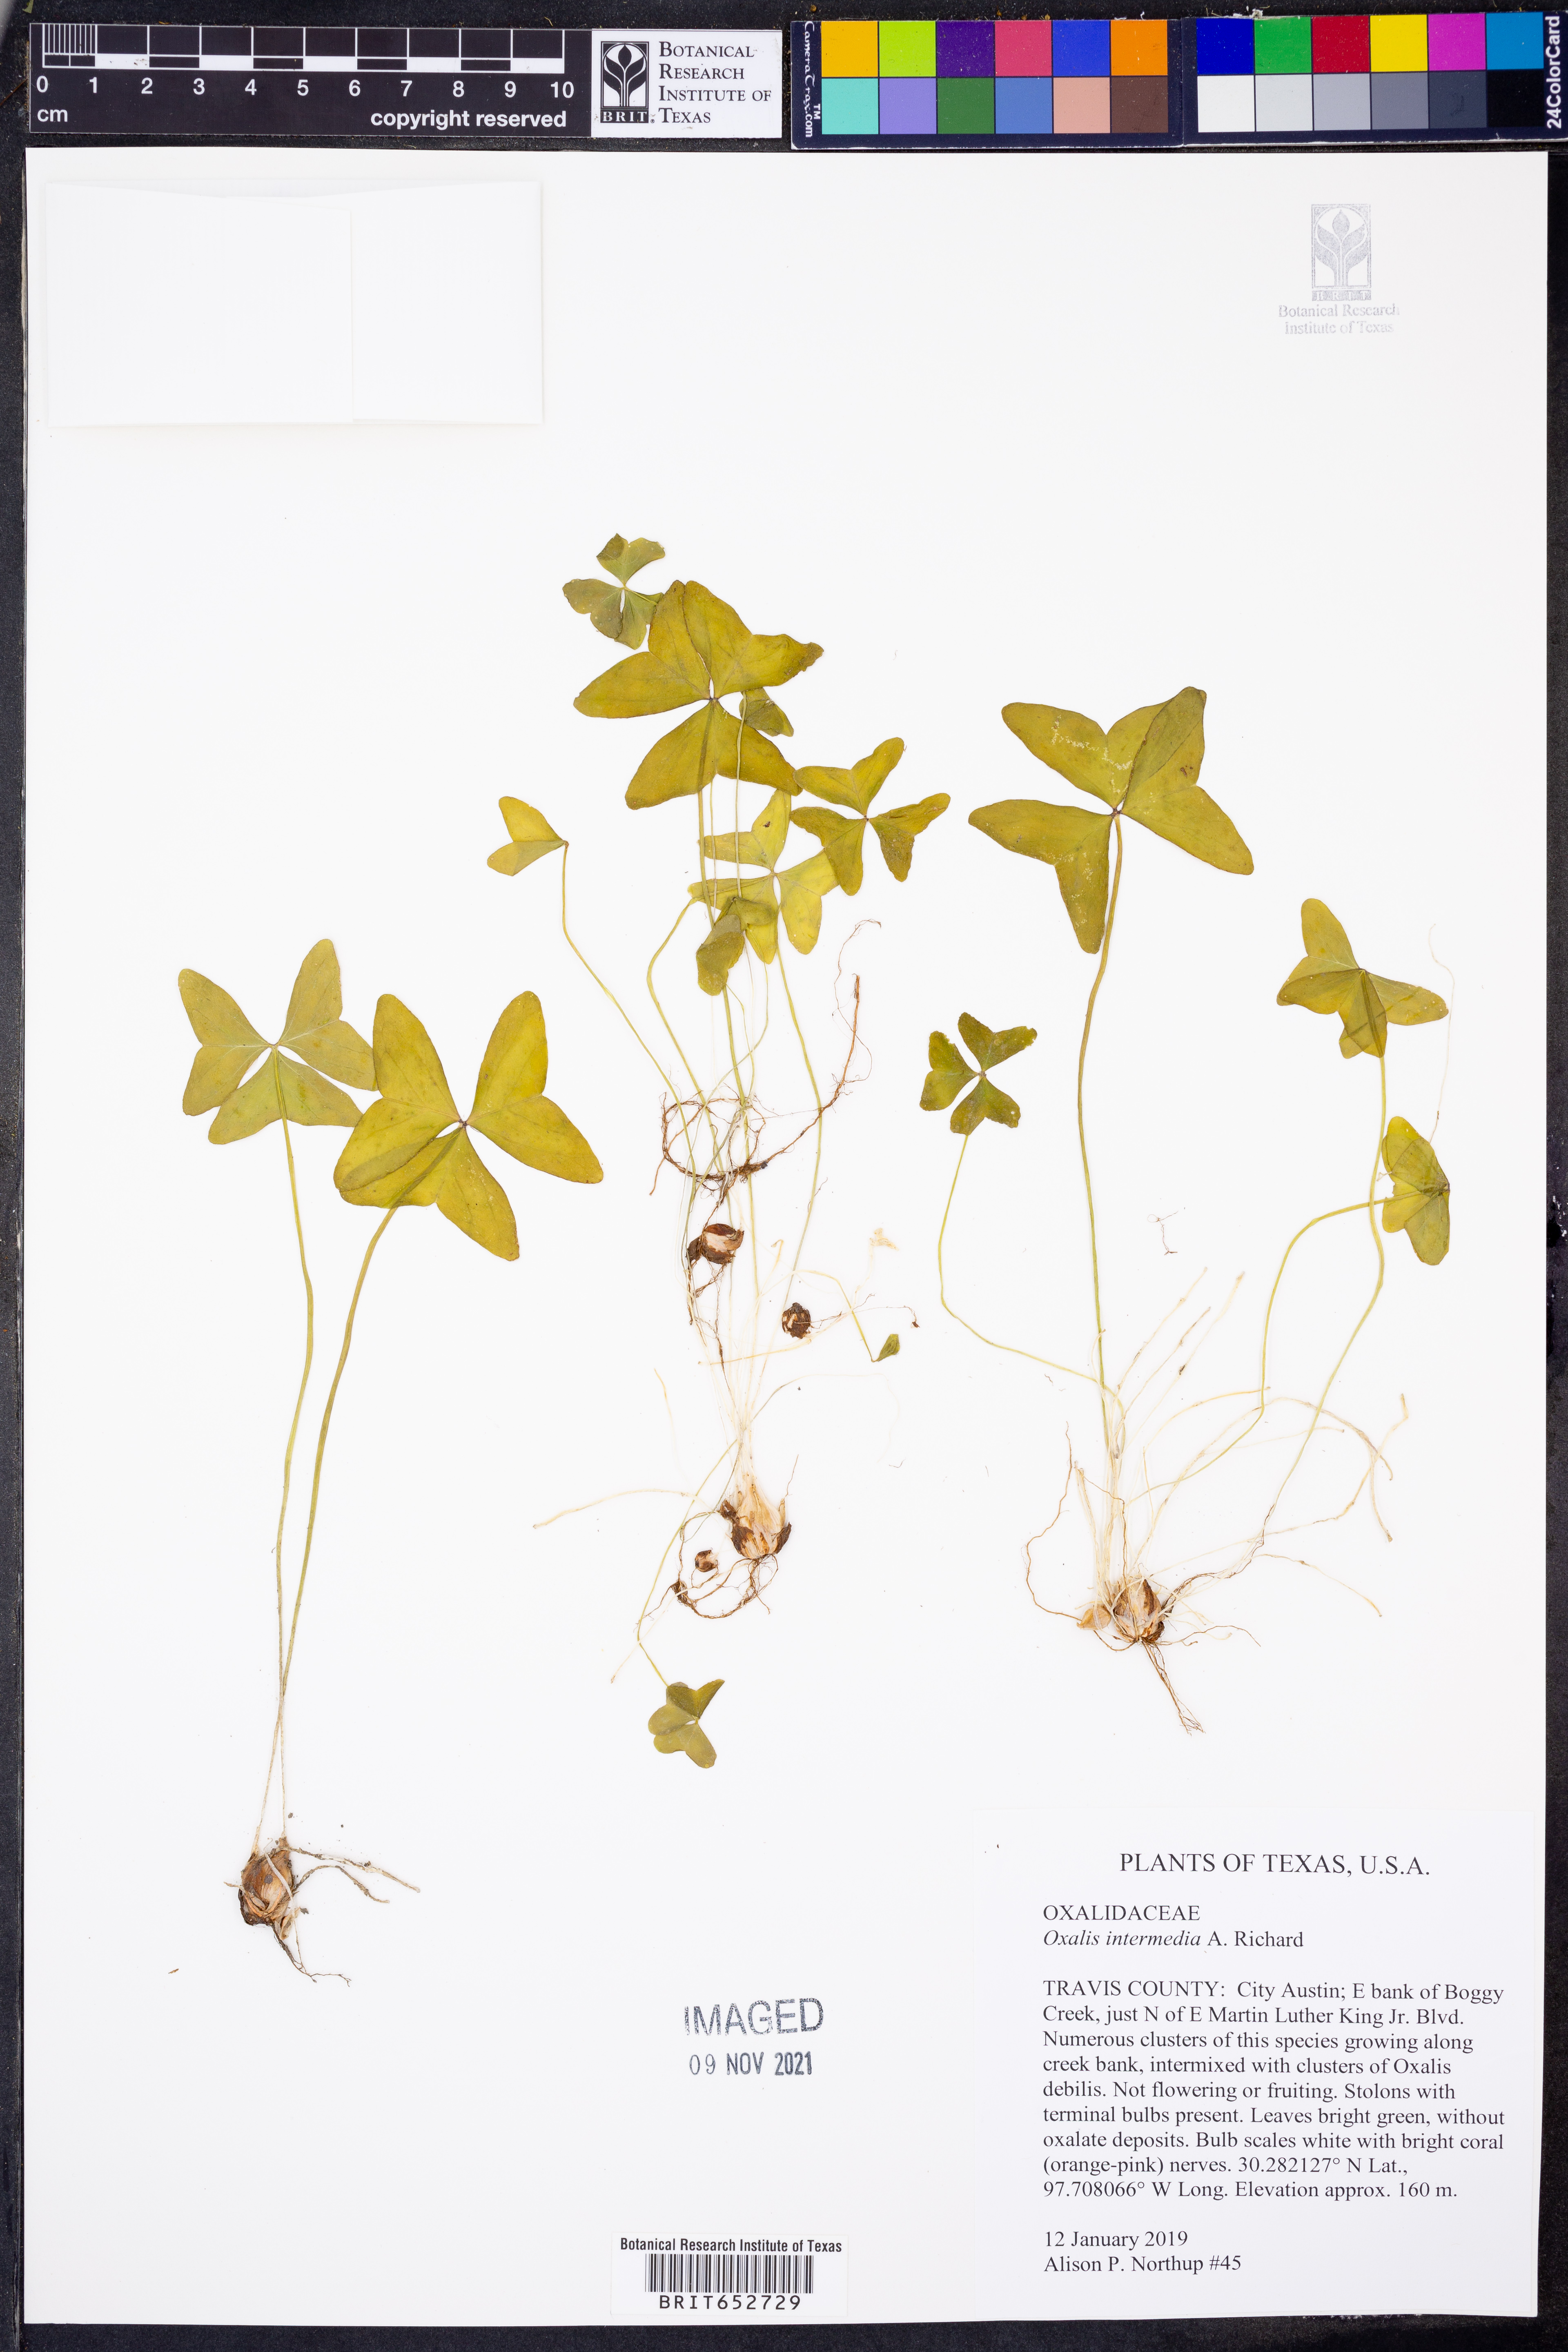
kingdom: Plantae
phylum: Tracheophyta
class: Magnoliopsida
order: Oxalidales
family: Oxalidaceae
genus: Oxalis
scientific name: Oxalis intermedia
